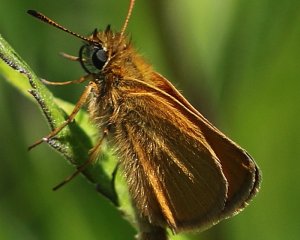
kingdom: Animalia
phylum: Arthropoda
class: Insecta
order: Lepidoptera
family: Hesperiidae
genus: Thymelicus
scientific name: Thymelicus lineola
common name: European Skipper
